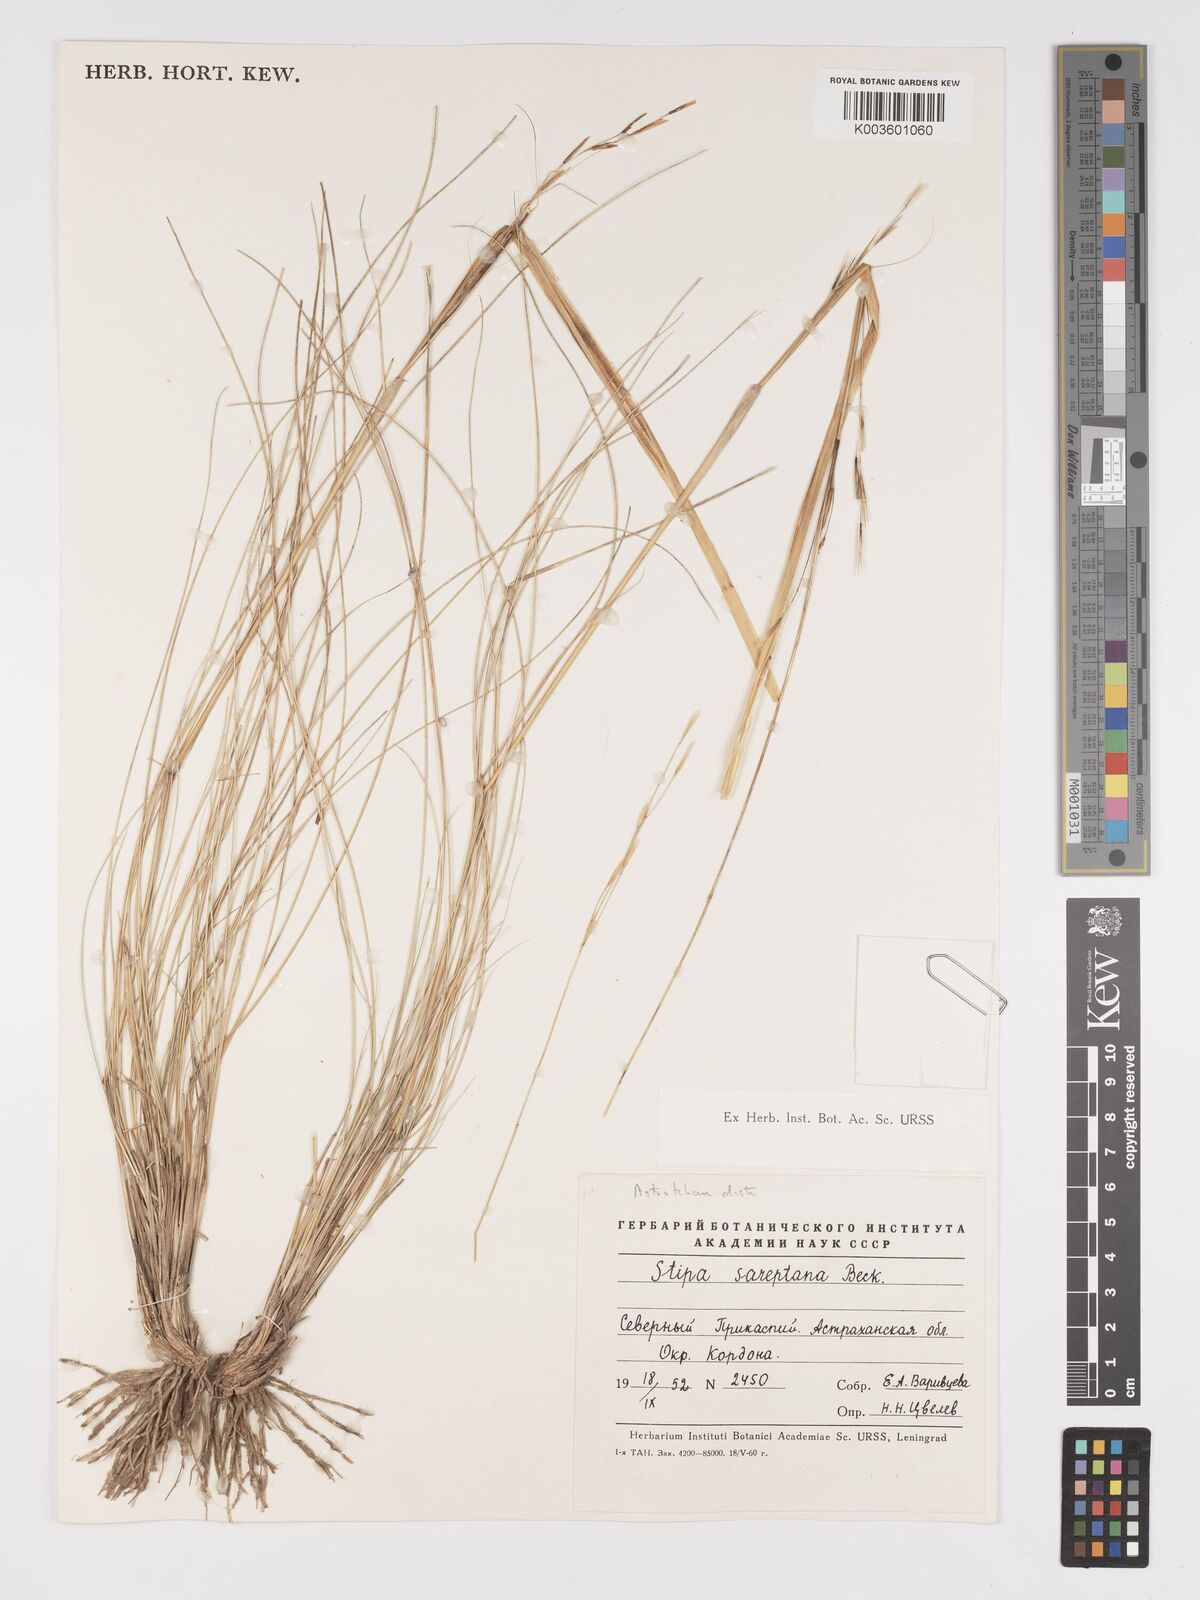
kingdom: Plantae
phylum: Tracheophyta
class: Liliopsida
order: Poales
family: Poaceae
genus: Stipa
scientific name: Stipa sareptana
